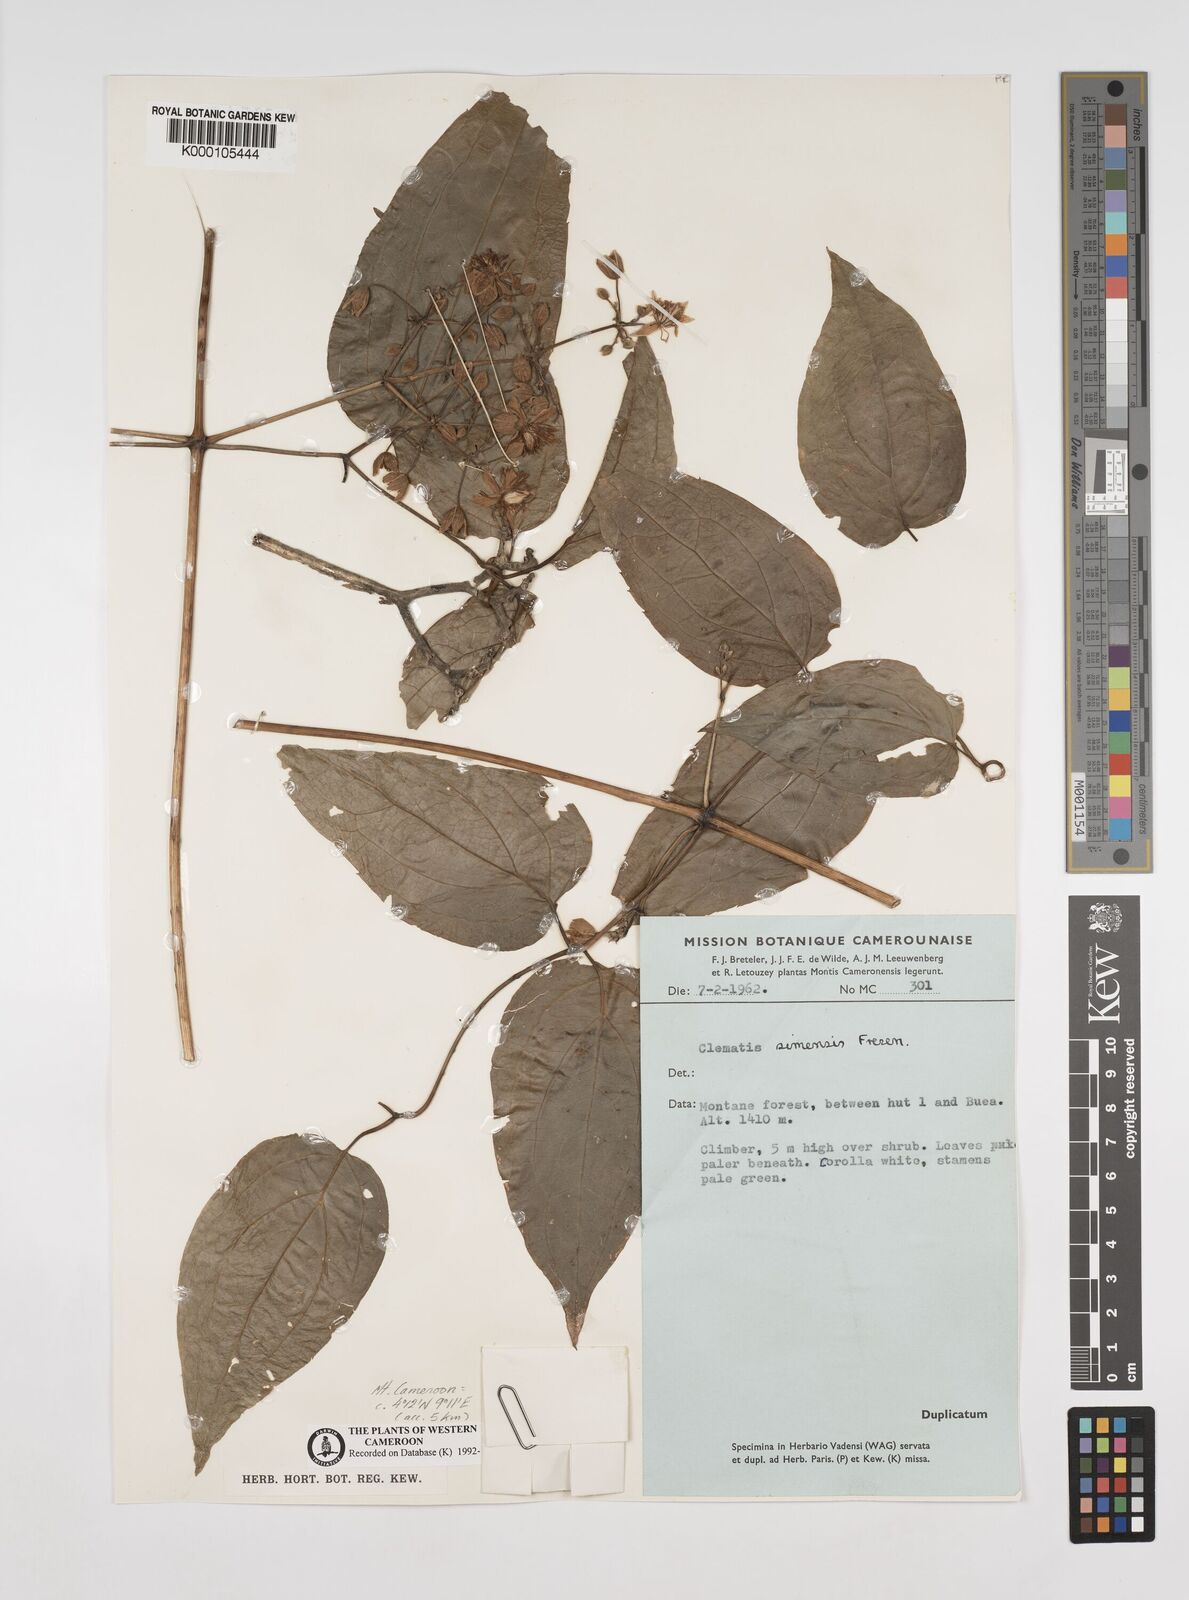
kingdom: Plantae
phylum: Tracheophyta
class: Magnoliopsida
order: Ranunculales
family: Ranunculaceae
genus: Clematis
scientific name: Clematis simensis
